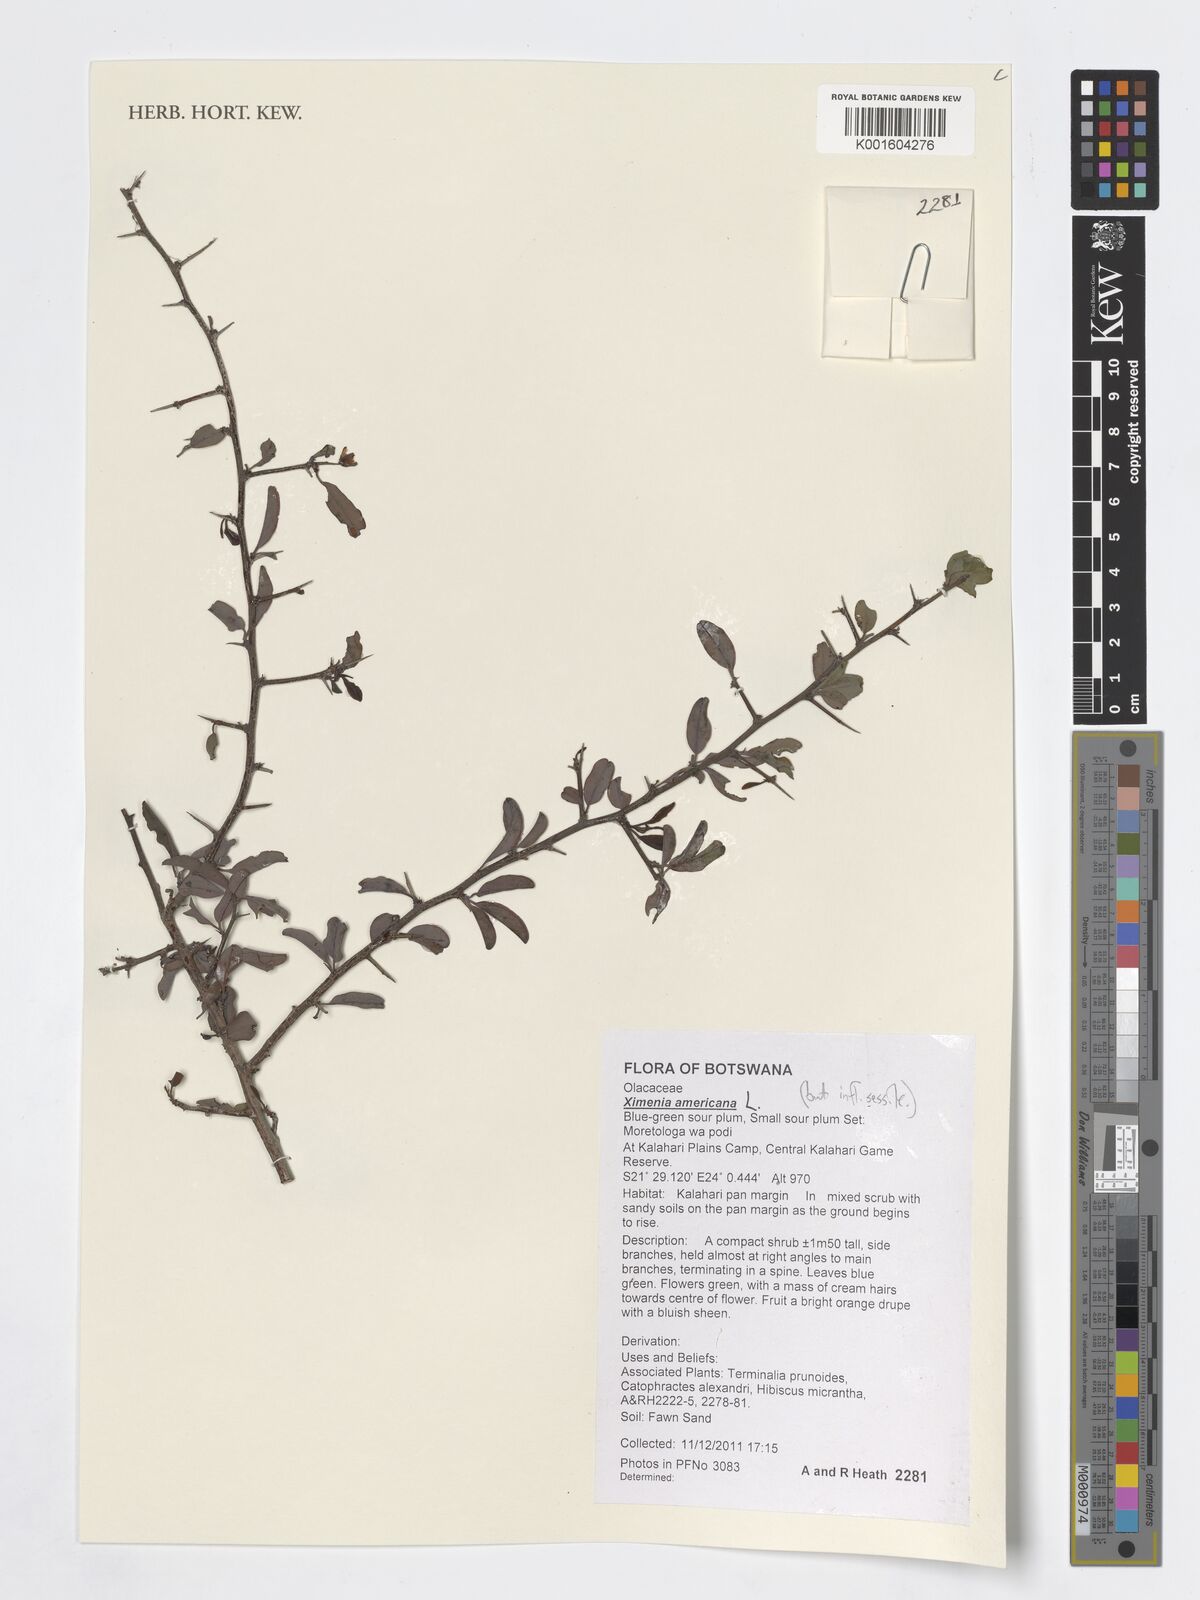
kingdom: Plantae
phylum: Tracheophyta
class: Magnoliopsida
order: Santalales
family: Ximeniaceae
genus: Ximenia
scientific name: Ximenia americana
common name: Tallowwood
